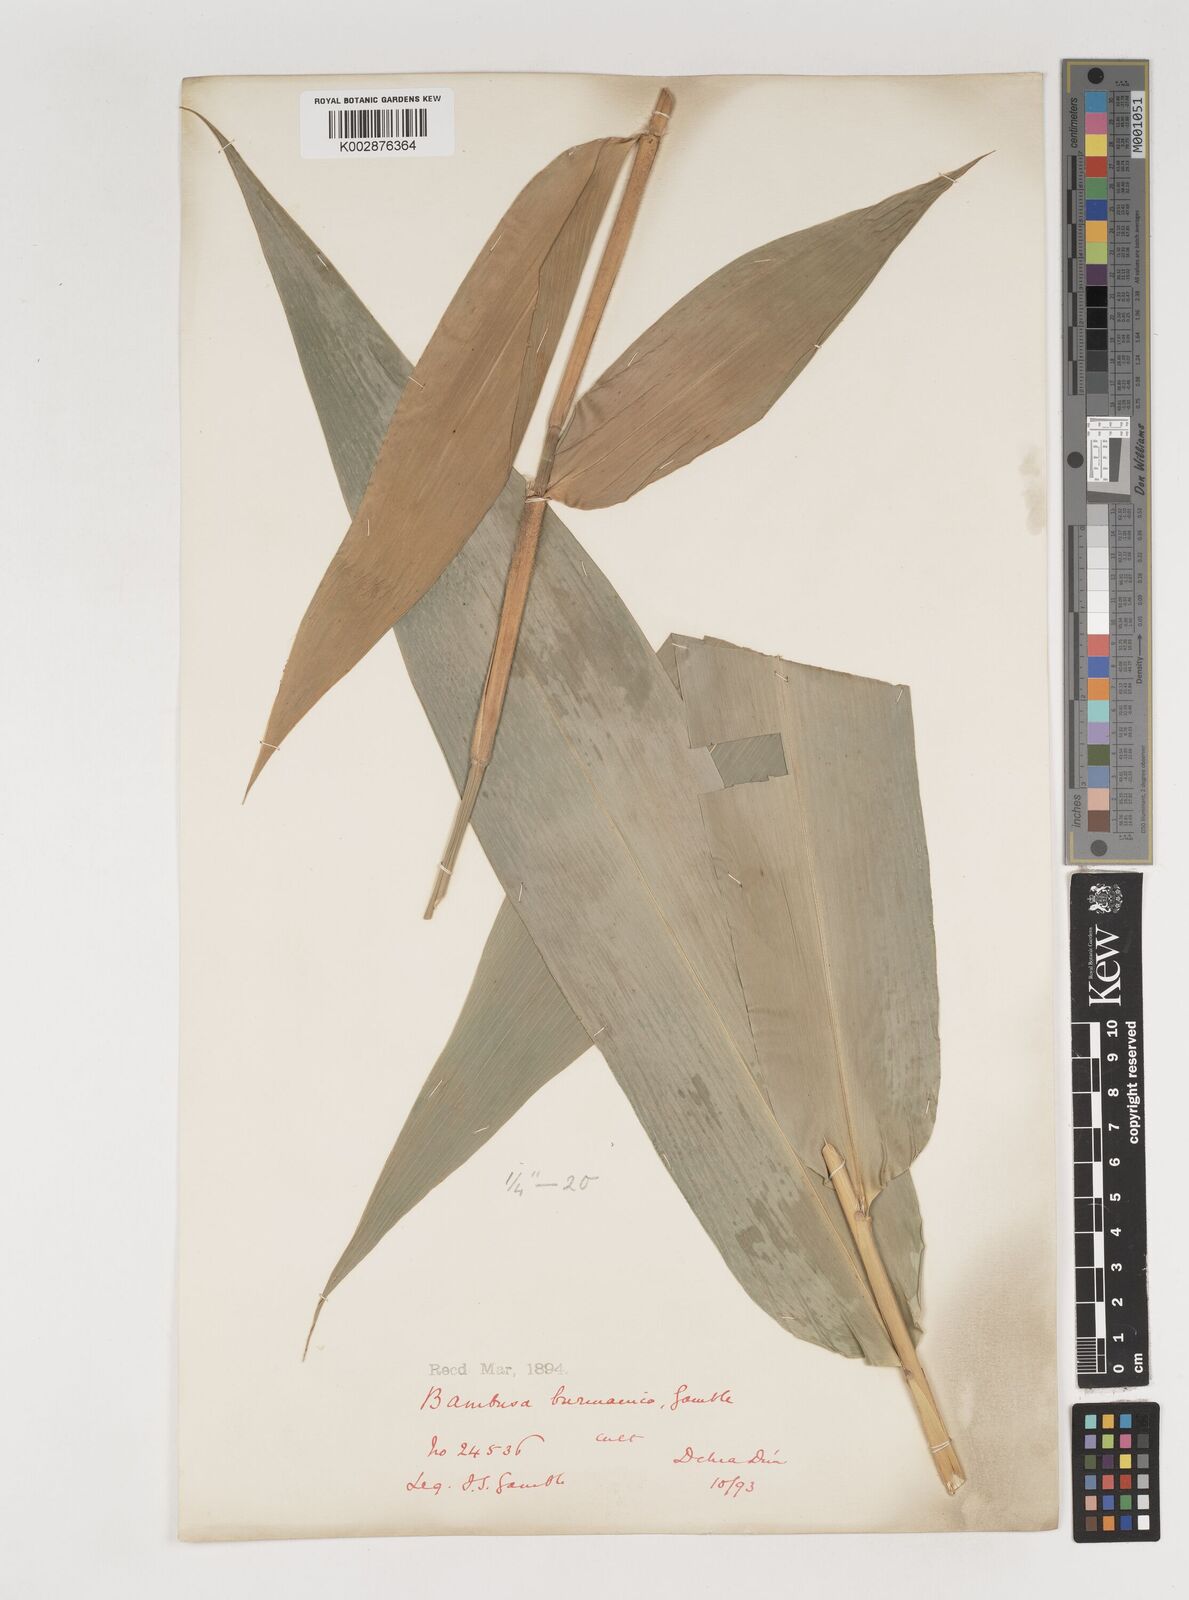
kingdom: Plantae
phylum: Tracheophyta
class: Liliopsida
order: Poales
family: Poaceae
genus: Bambusa
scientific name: Bambusa burmanica
